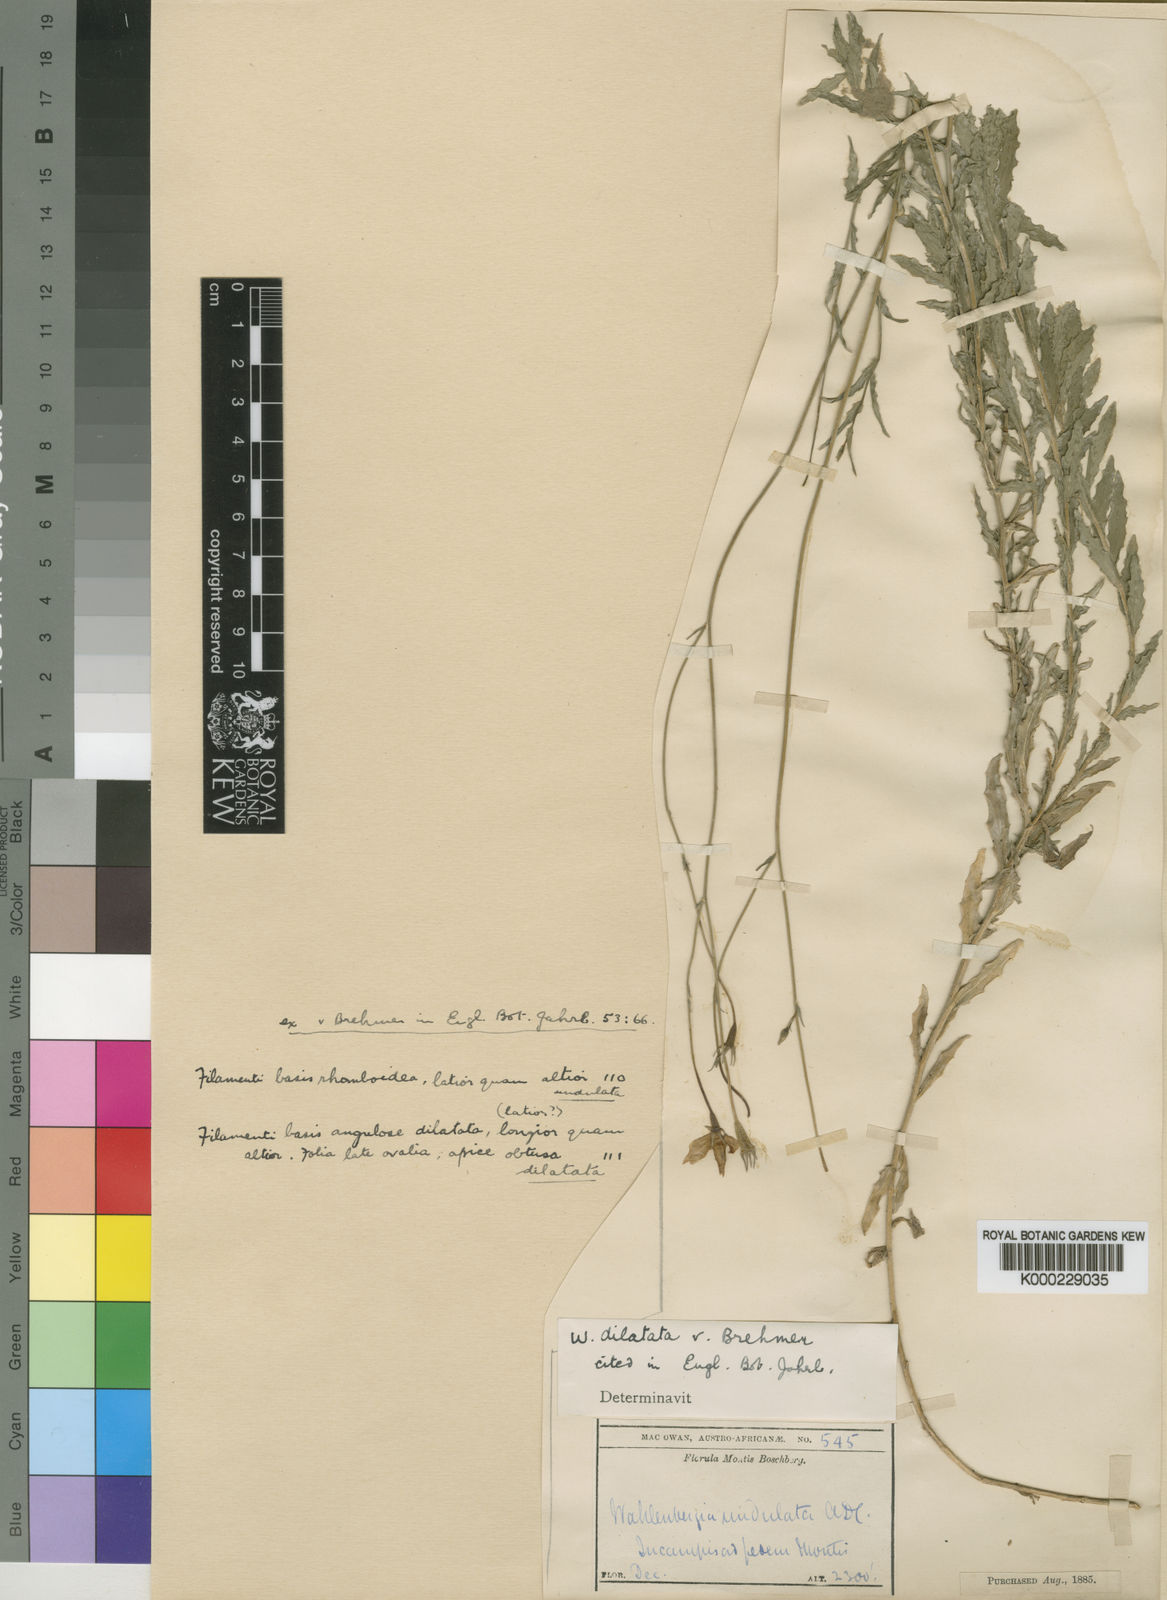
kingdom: Plantae
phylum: Tracheophyta
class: Magnoliopsida
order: Asterales
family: Campanulaceae
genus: Wahlenbergia
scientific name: Wahlenbergia dilatata
